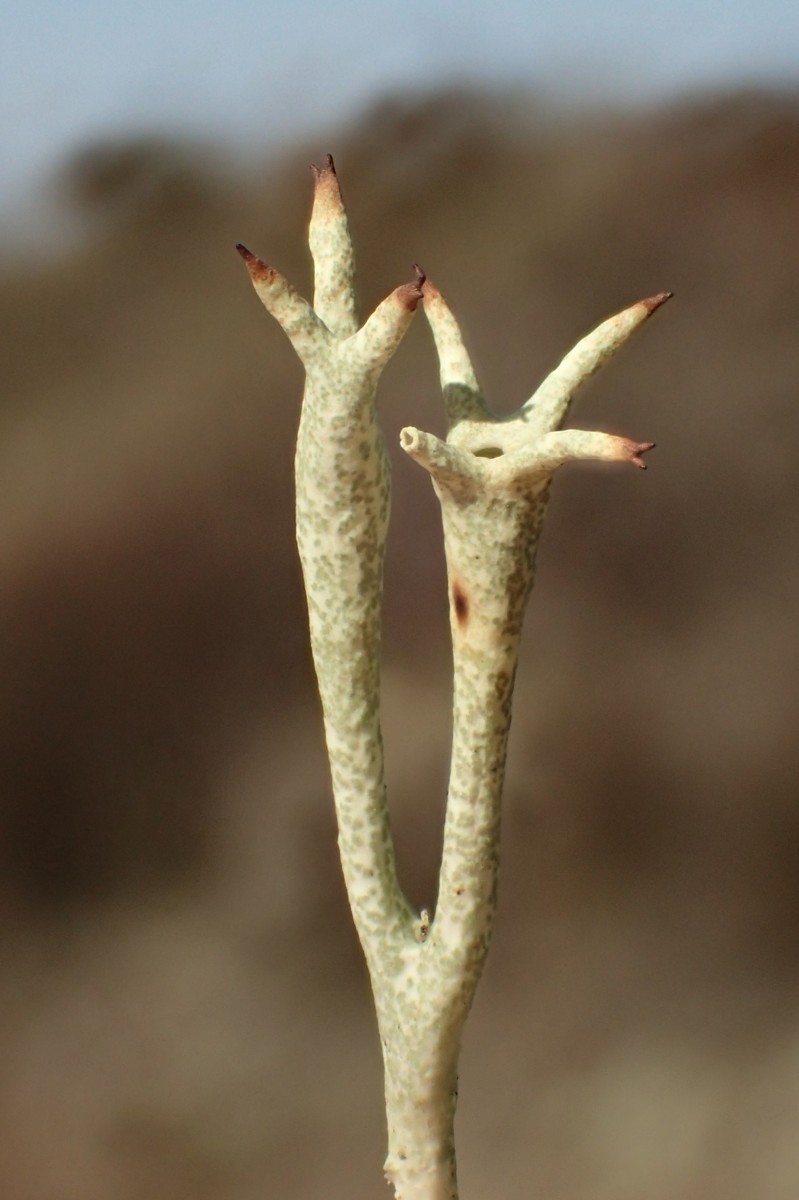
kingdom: Fungi
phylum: Ascomycota
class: Lecanoromycetes
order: Lecanorales
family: Cladoniaceae
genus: Cladonia
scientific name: Cladonia uncialis
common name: pigget bægerlav
